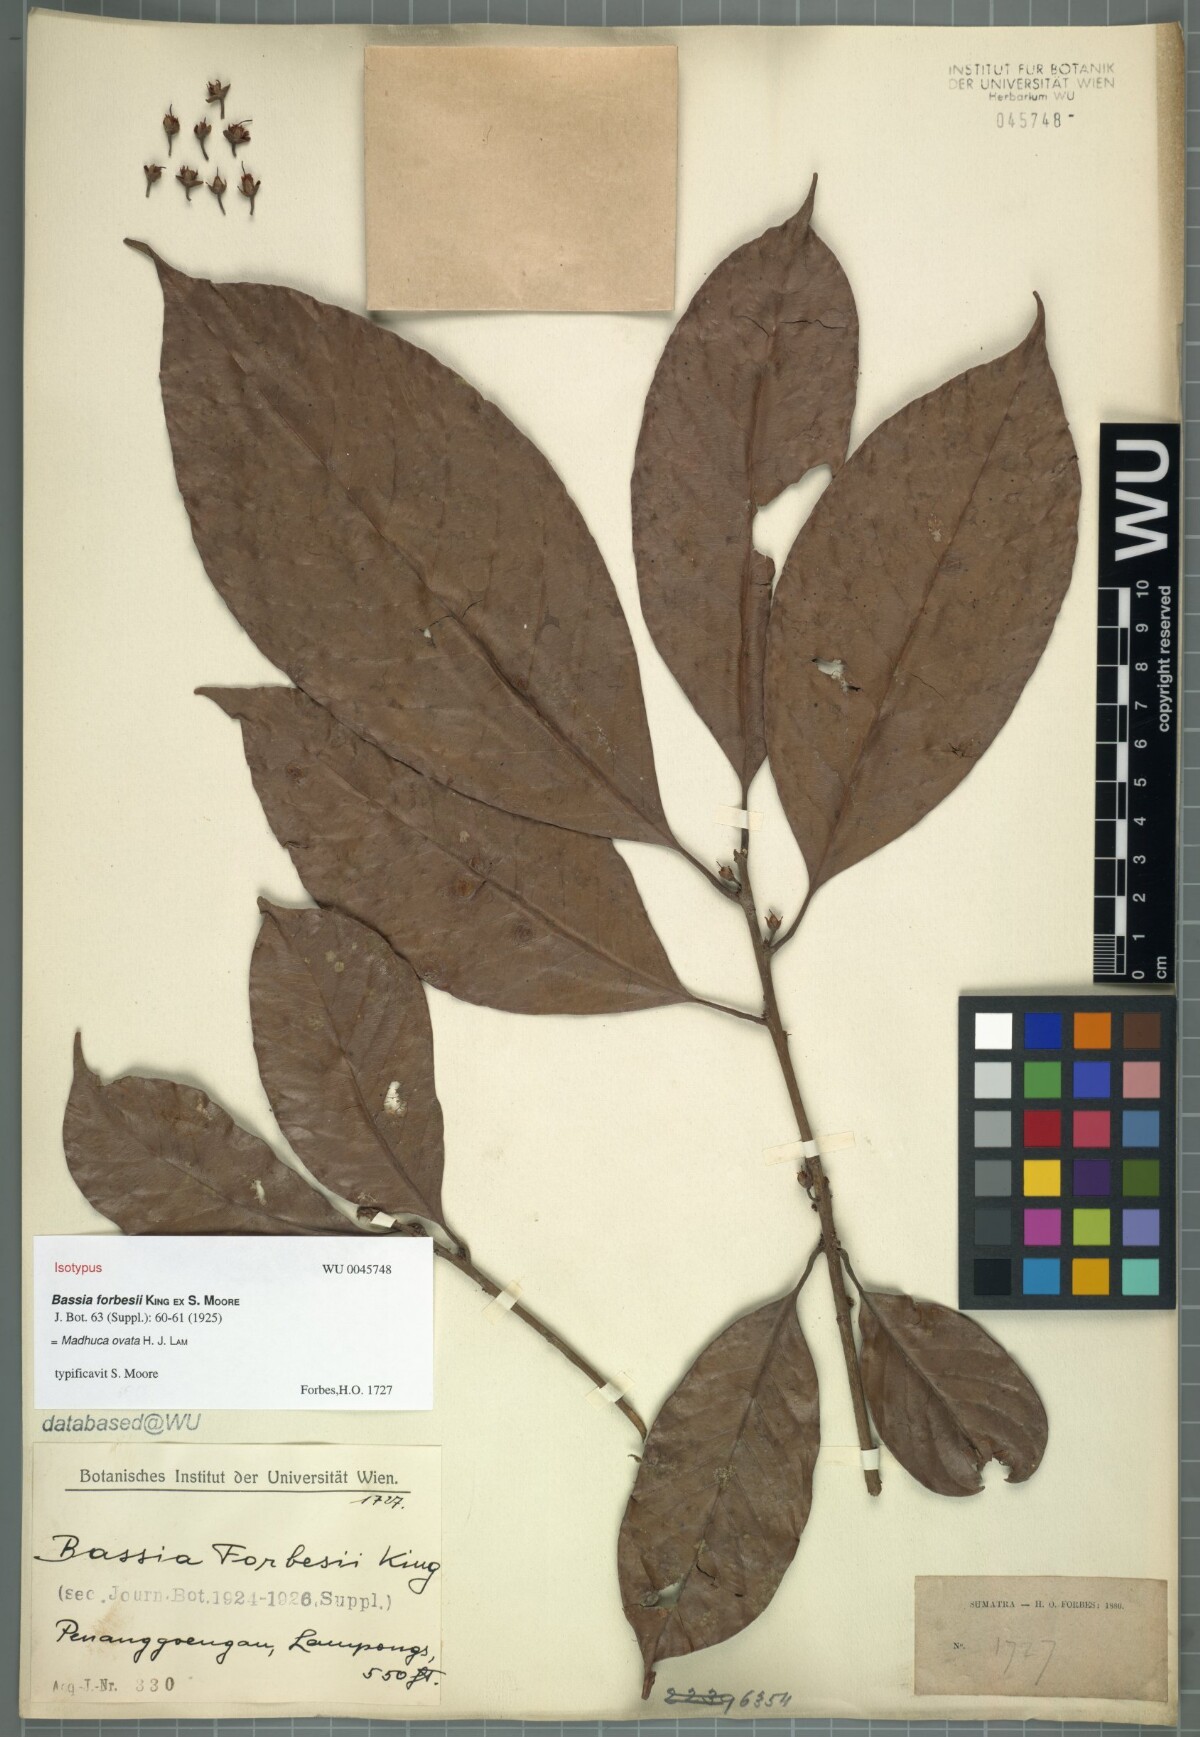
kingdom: Plantae
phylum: Tracheophyta
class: Magnoliopsida
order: Ericales
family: Sapotaceae
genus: Madhuca
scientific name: Madhuca ovata
